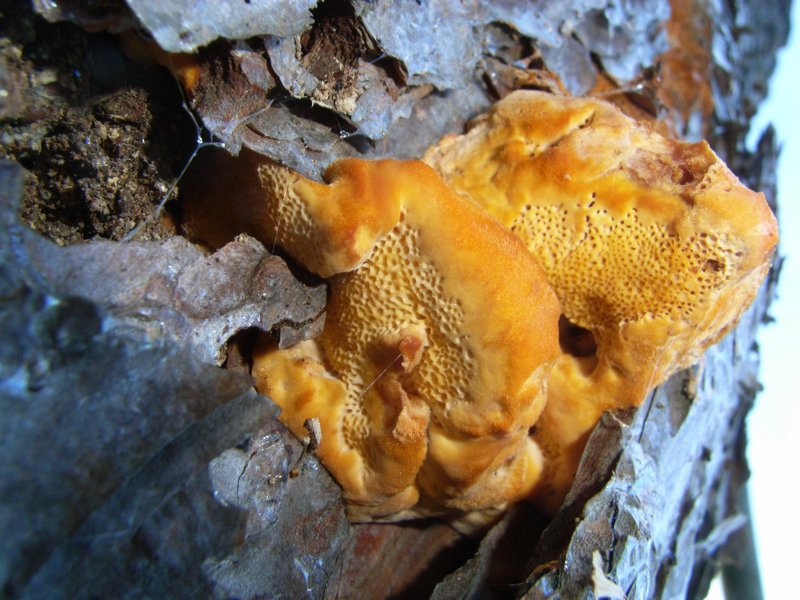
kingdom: Fungi
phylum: Basidiomycota
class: Agaricomycetes
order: Polyporales
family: Pycnoporellaceae
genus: Pycnoporellus
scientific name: Pycnoporellus fulgens
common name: flammeporesvamp
